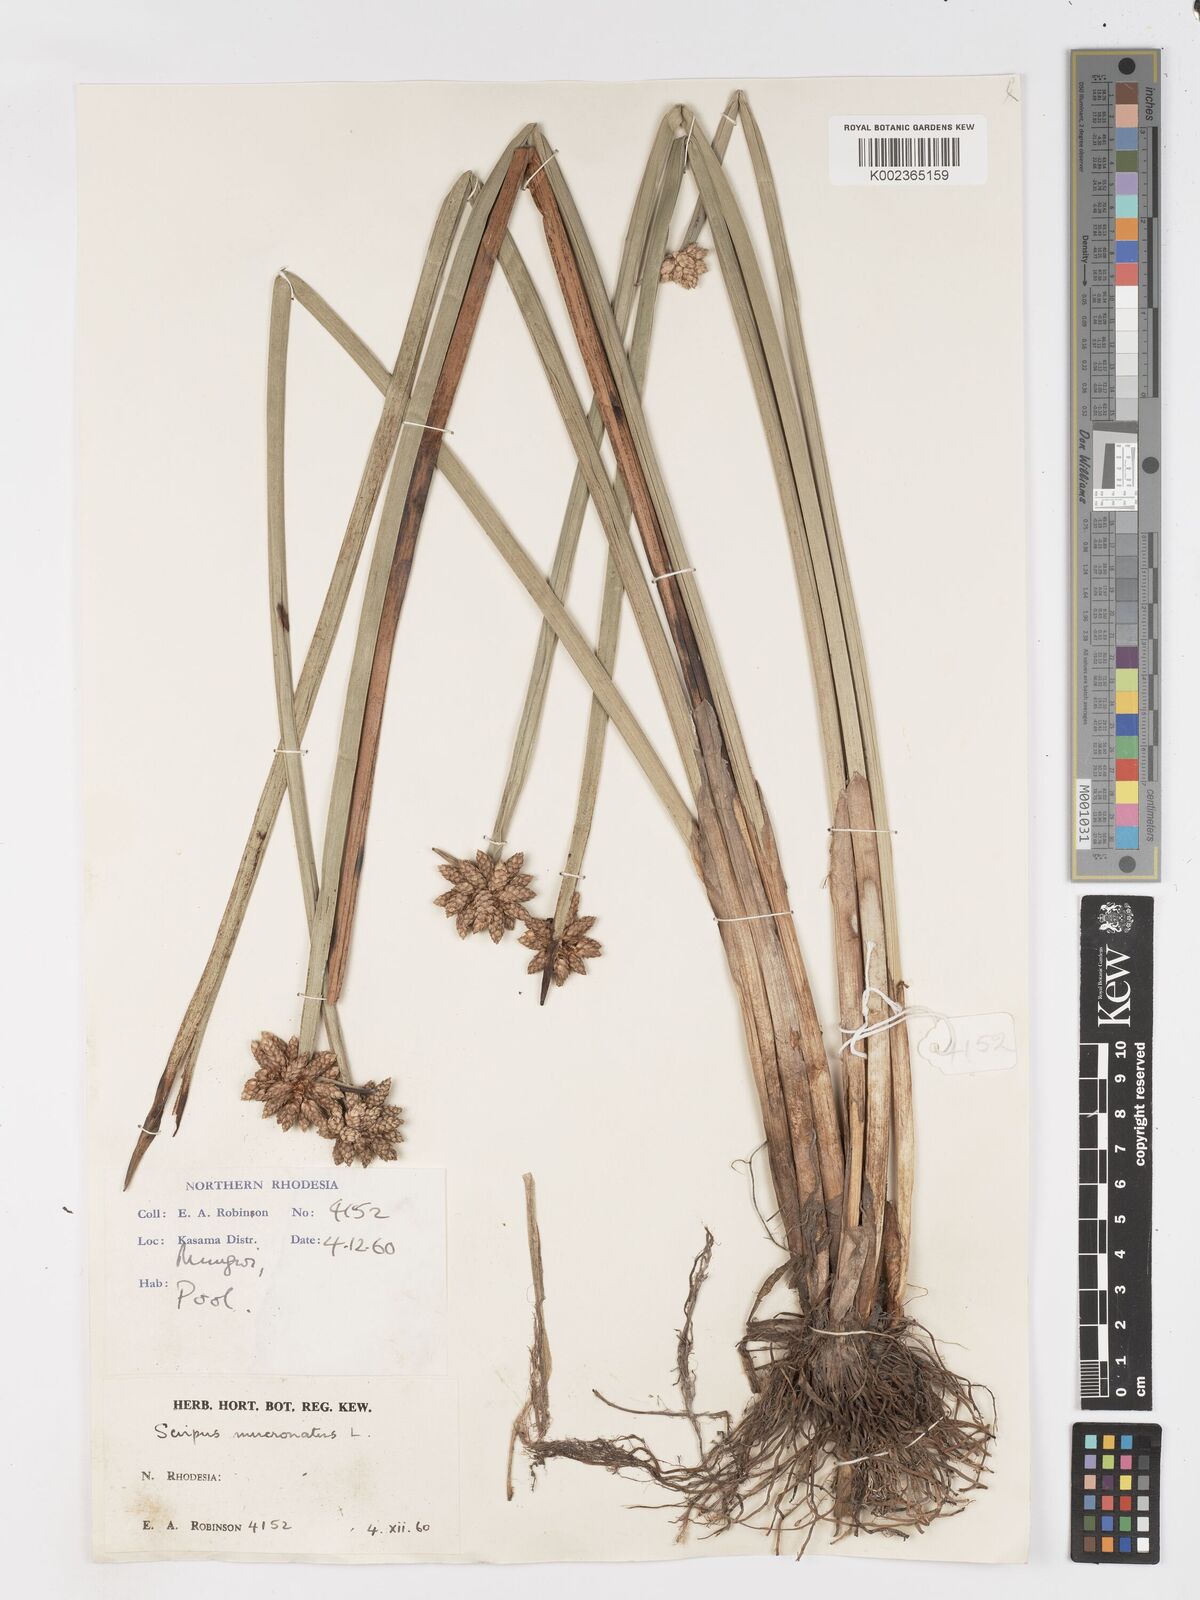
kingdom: Plantae
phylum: Tracheophyta
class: Liliopsida
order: Poales
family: Cyperaceae
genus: Schoenoplectiella
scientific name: Schoenoplectiella mucronata
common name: Bog bulrush
